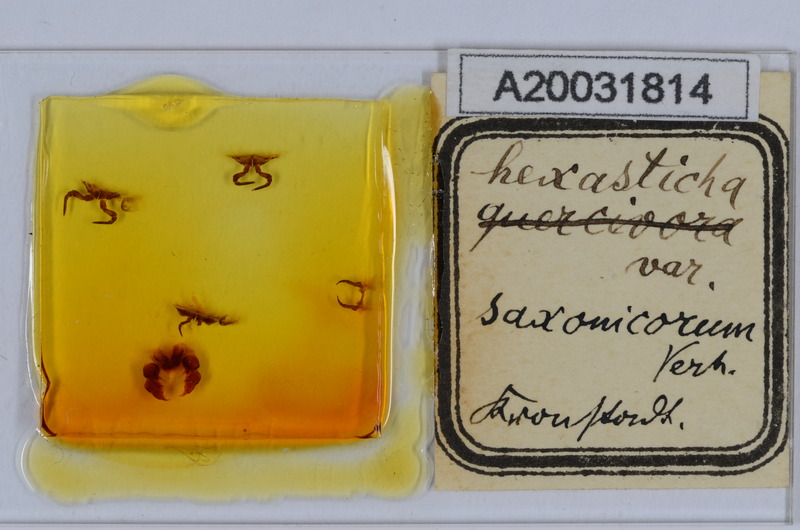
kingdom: Animalia
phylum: Arthropoda
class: Diplopoda
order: Glomerida
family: Glomeridae
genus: Glomeris
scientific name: Glomeris hexasticha
